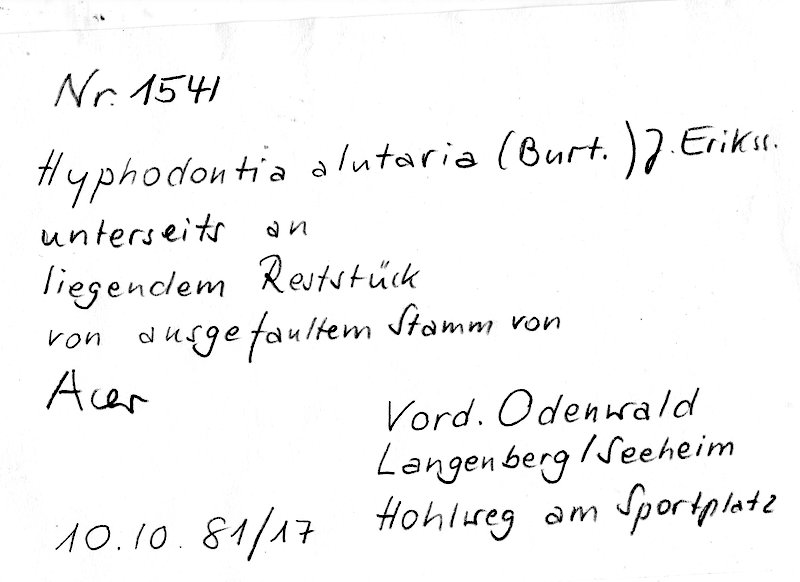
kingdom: Fungi
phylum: Basidiomycota
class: Agaricomycetes
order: Hymenochaetales
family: Hyphodontiaceae
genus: Hyphodontia
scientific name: Hyphodontia alutaria
